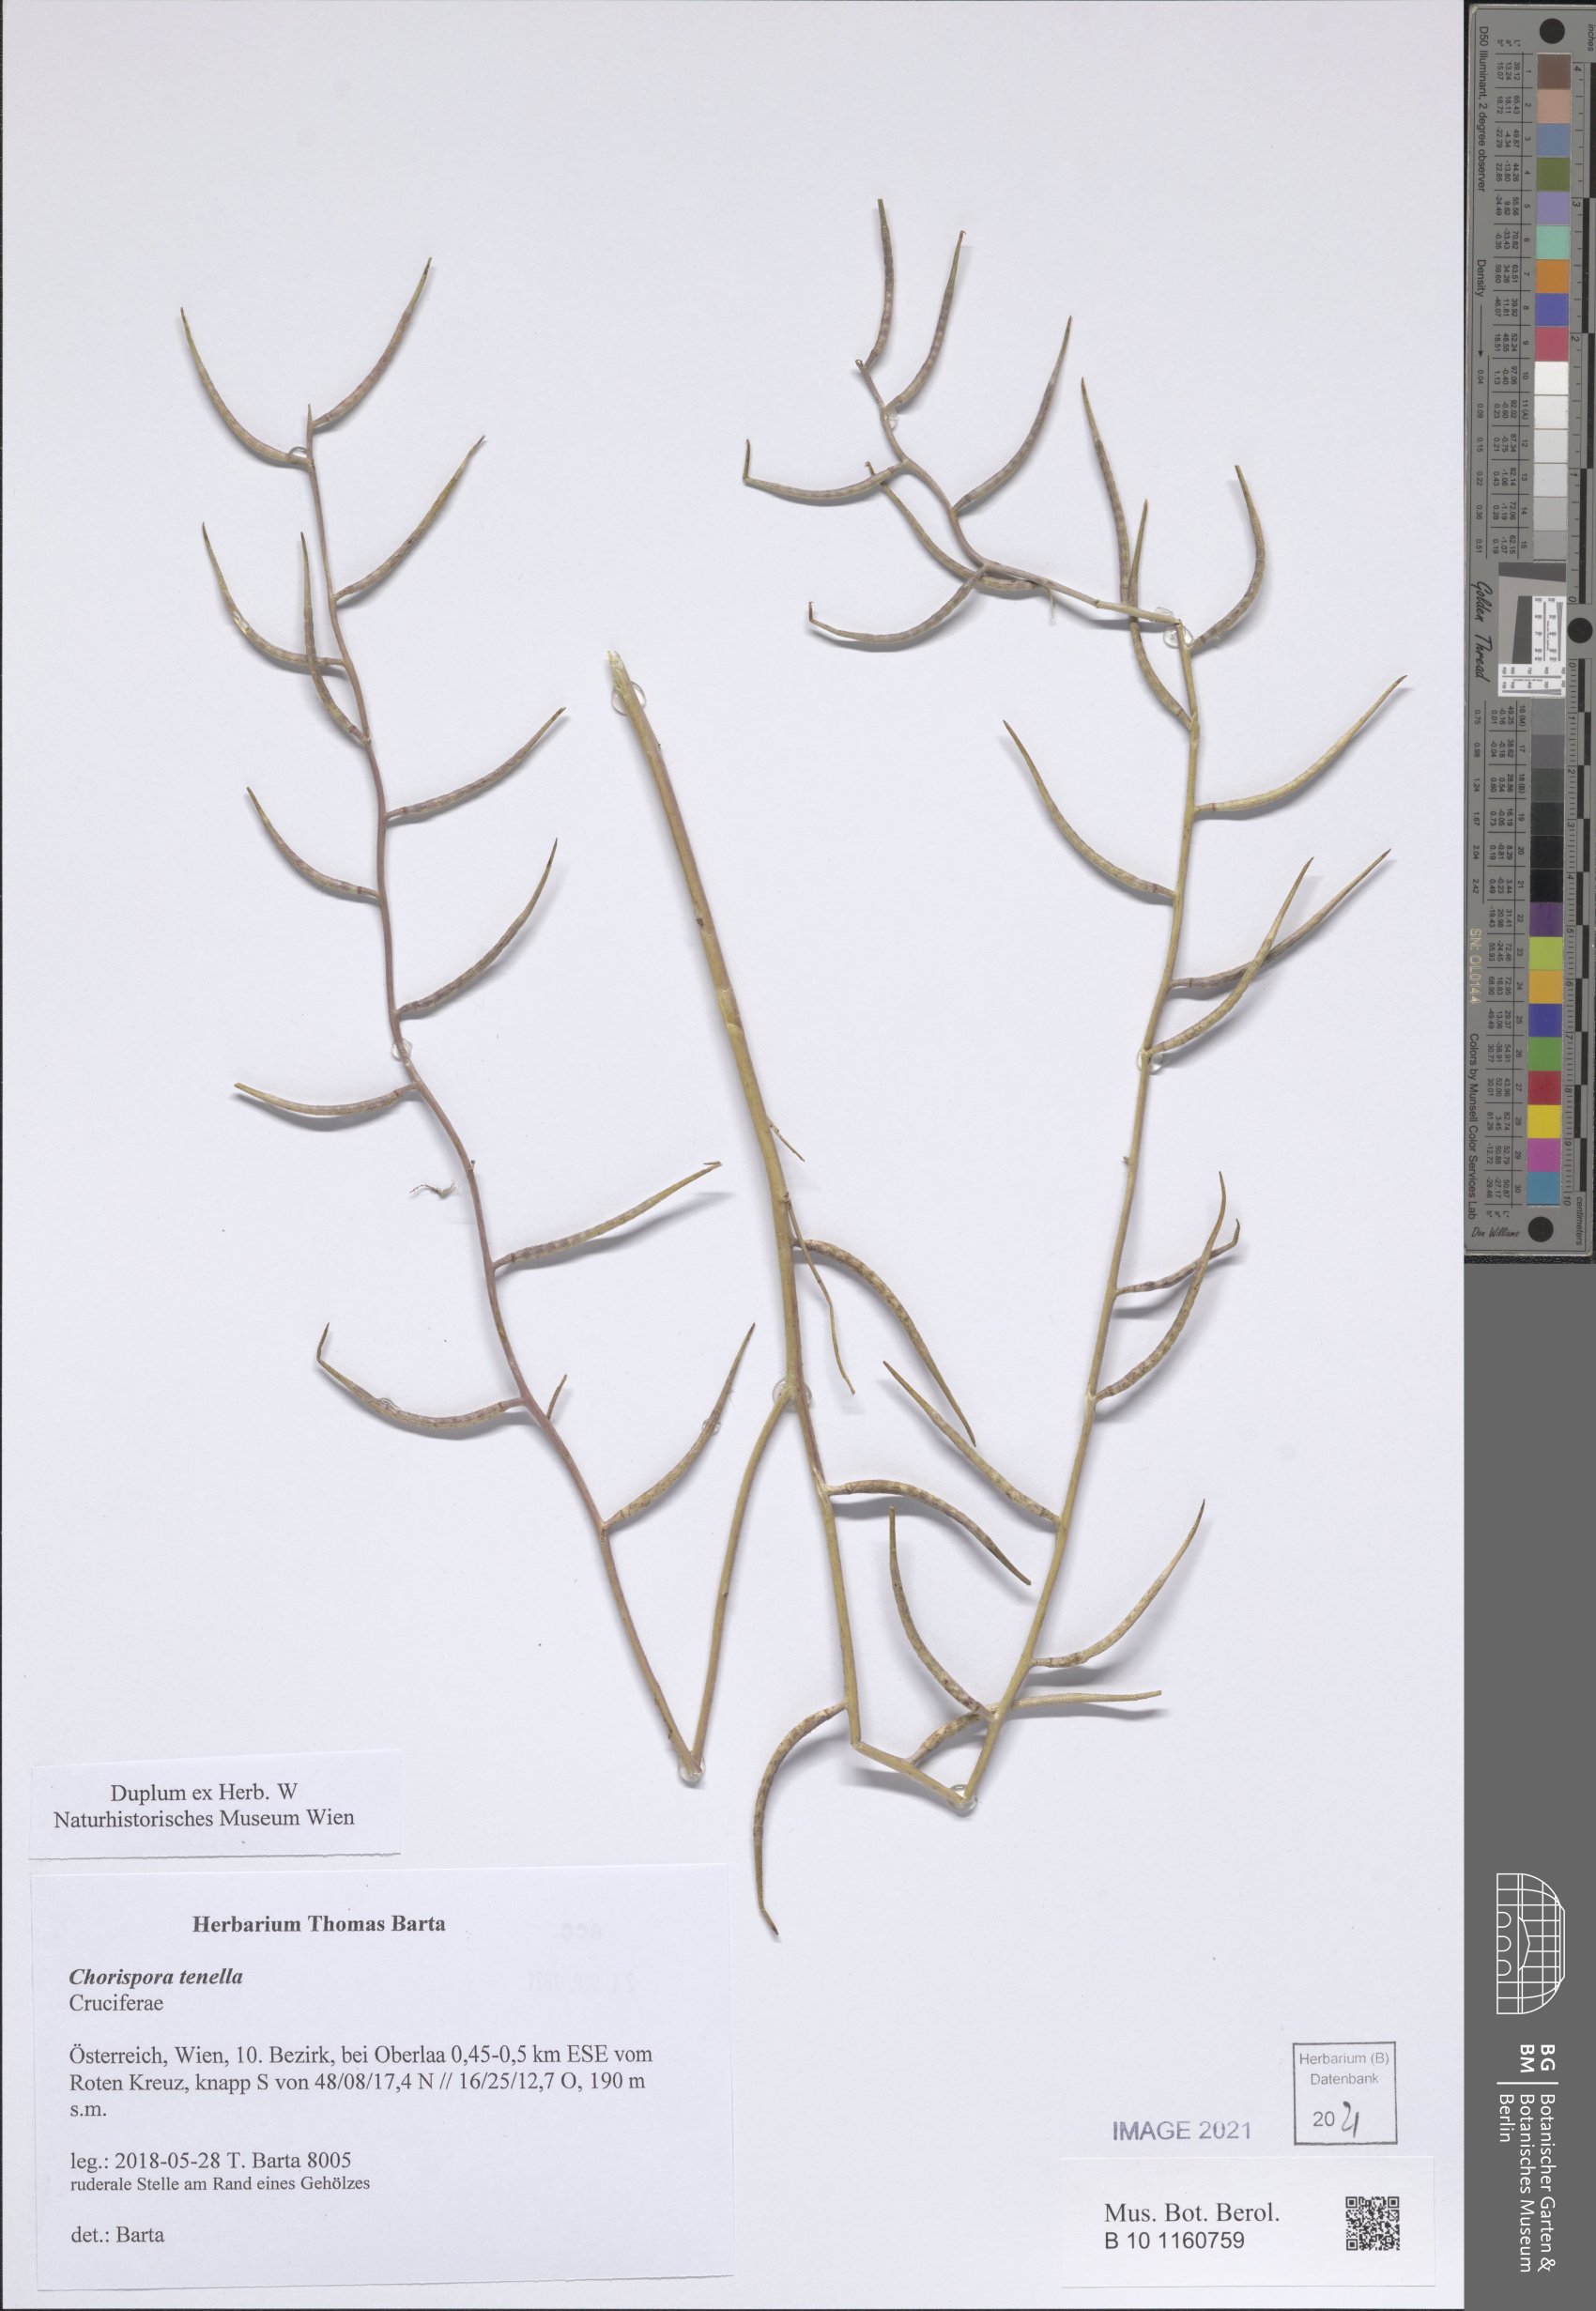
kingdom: Plantae
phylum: Tracheophyta
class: Magnoliopsida
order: Brassicales
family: Brassicaceae
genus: Chorispora
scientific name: Chorispora tenella
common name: Crossflower
